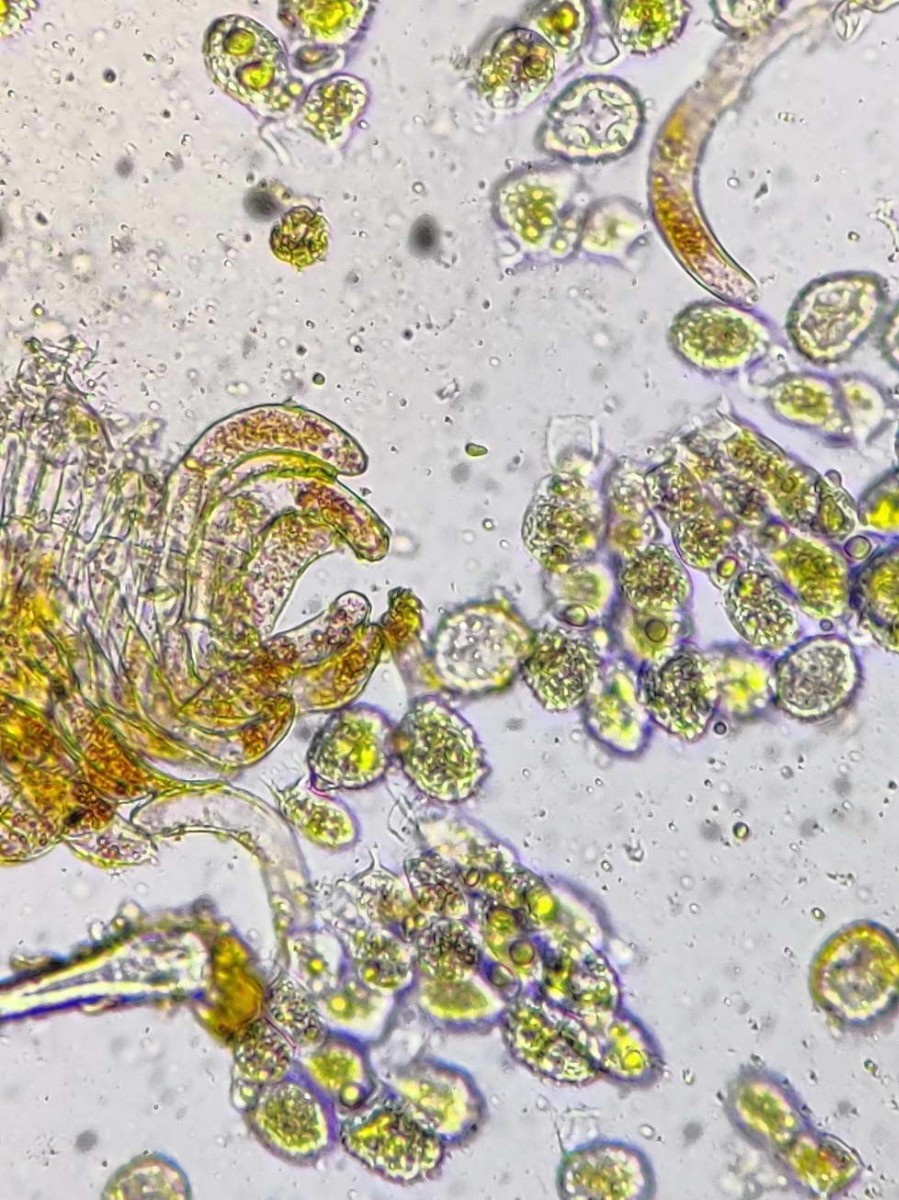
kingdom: Fungi
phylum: Basidiomycota
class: Pucciniomycetes
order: Pucciniales
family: Phragmidiaceae
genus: Phragmidium
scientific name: Phragmidium rubi-idaei
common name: hindbær-flercellerust
